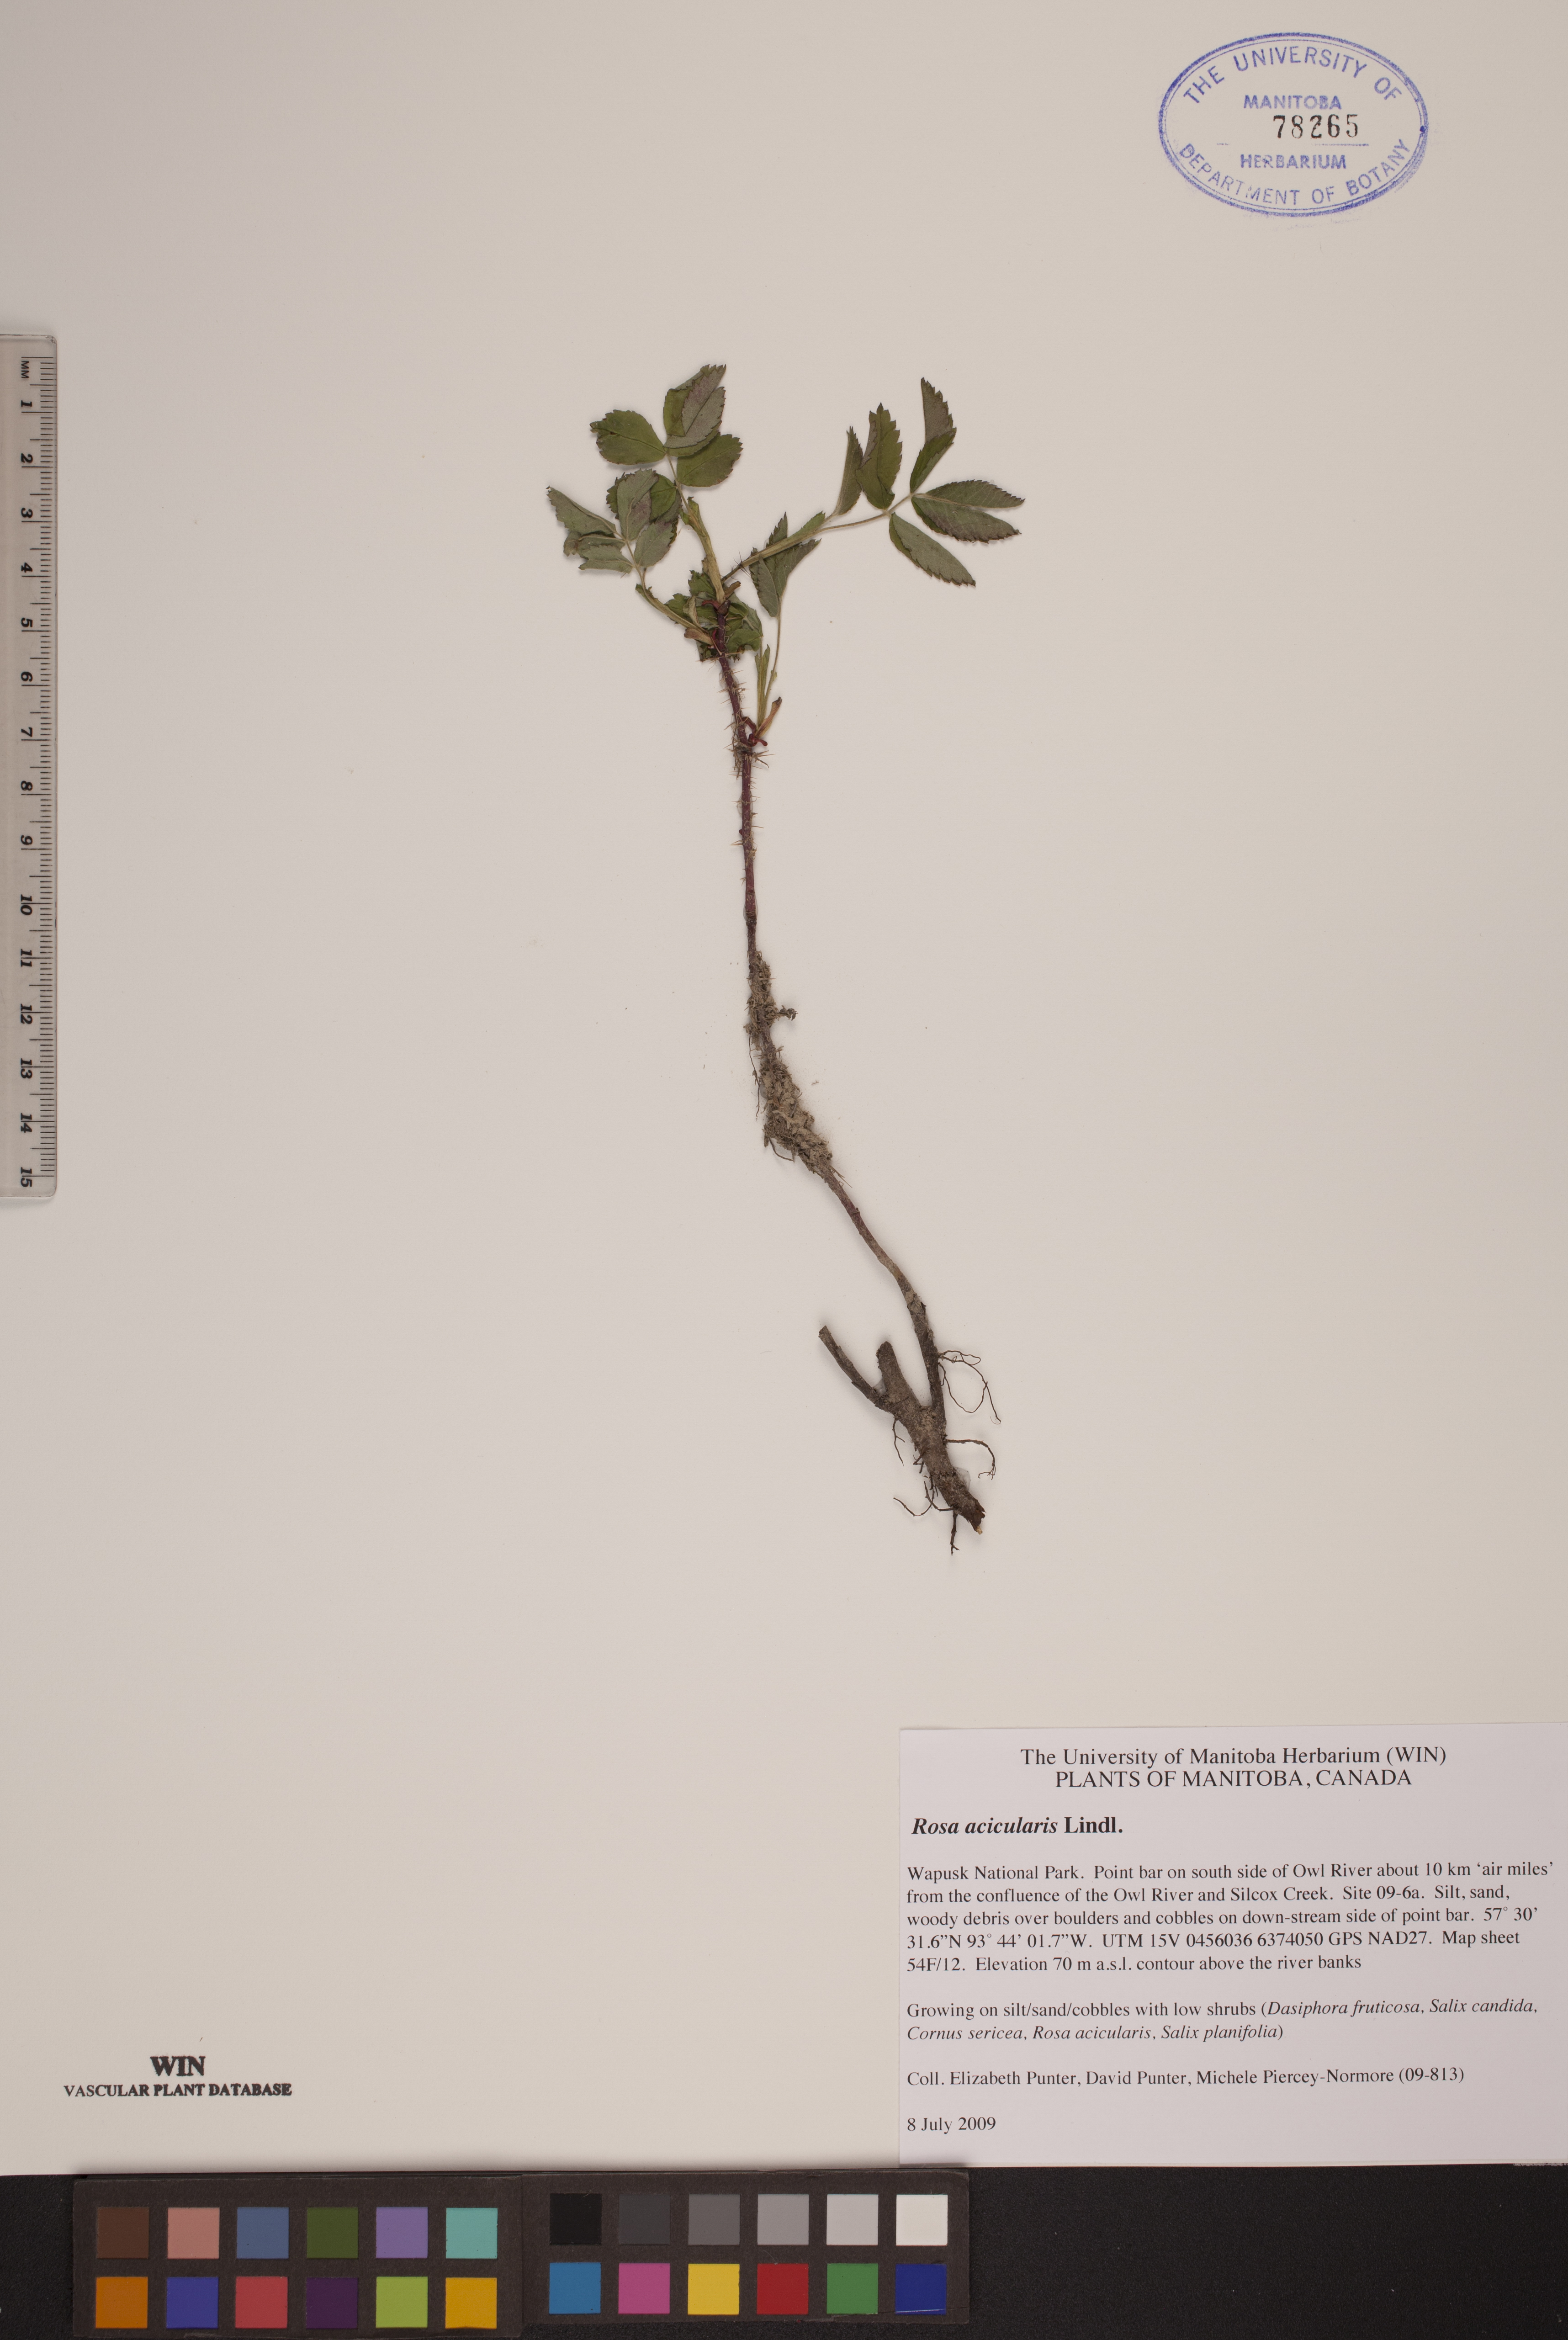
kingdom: Plantae
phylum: Tracheophyta
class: Magnoliopsida
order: Rosales
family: Rosaceae
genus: Rosa
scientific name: Rosa acicularis
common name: Prickly rose
